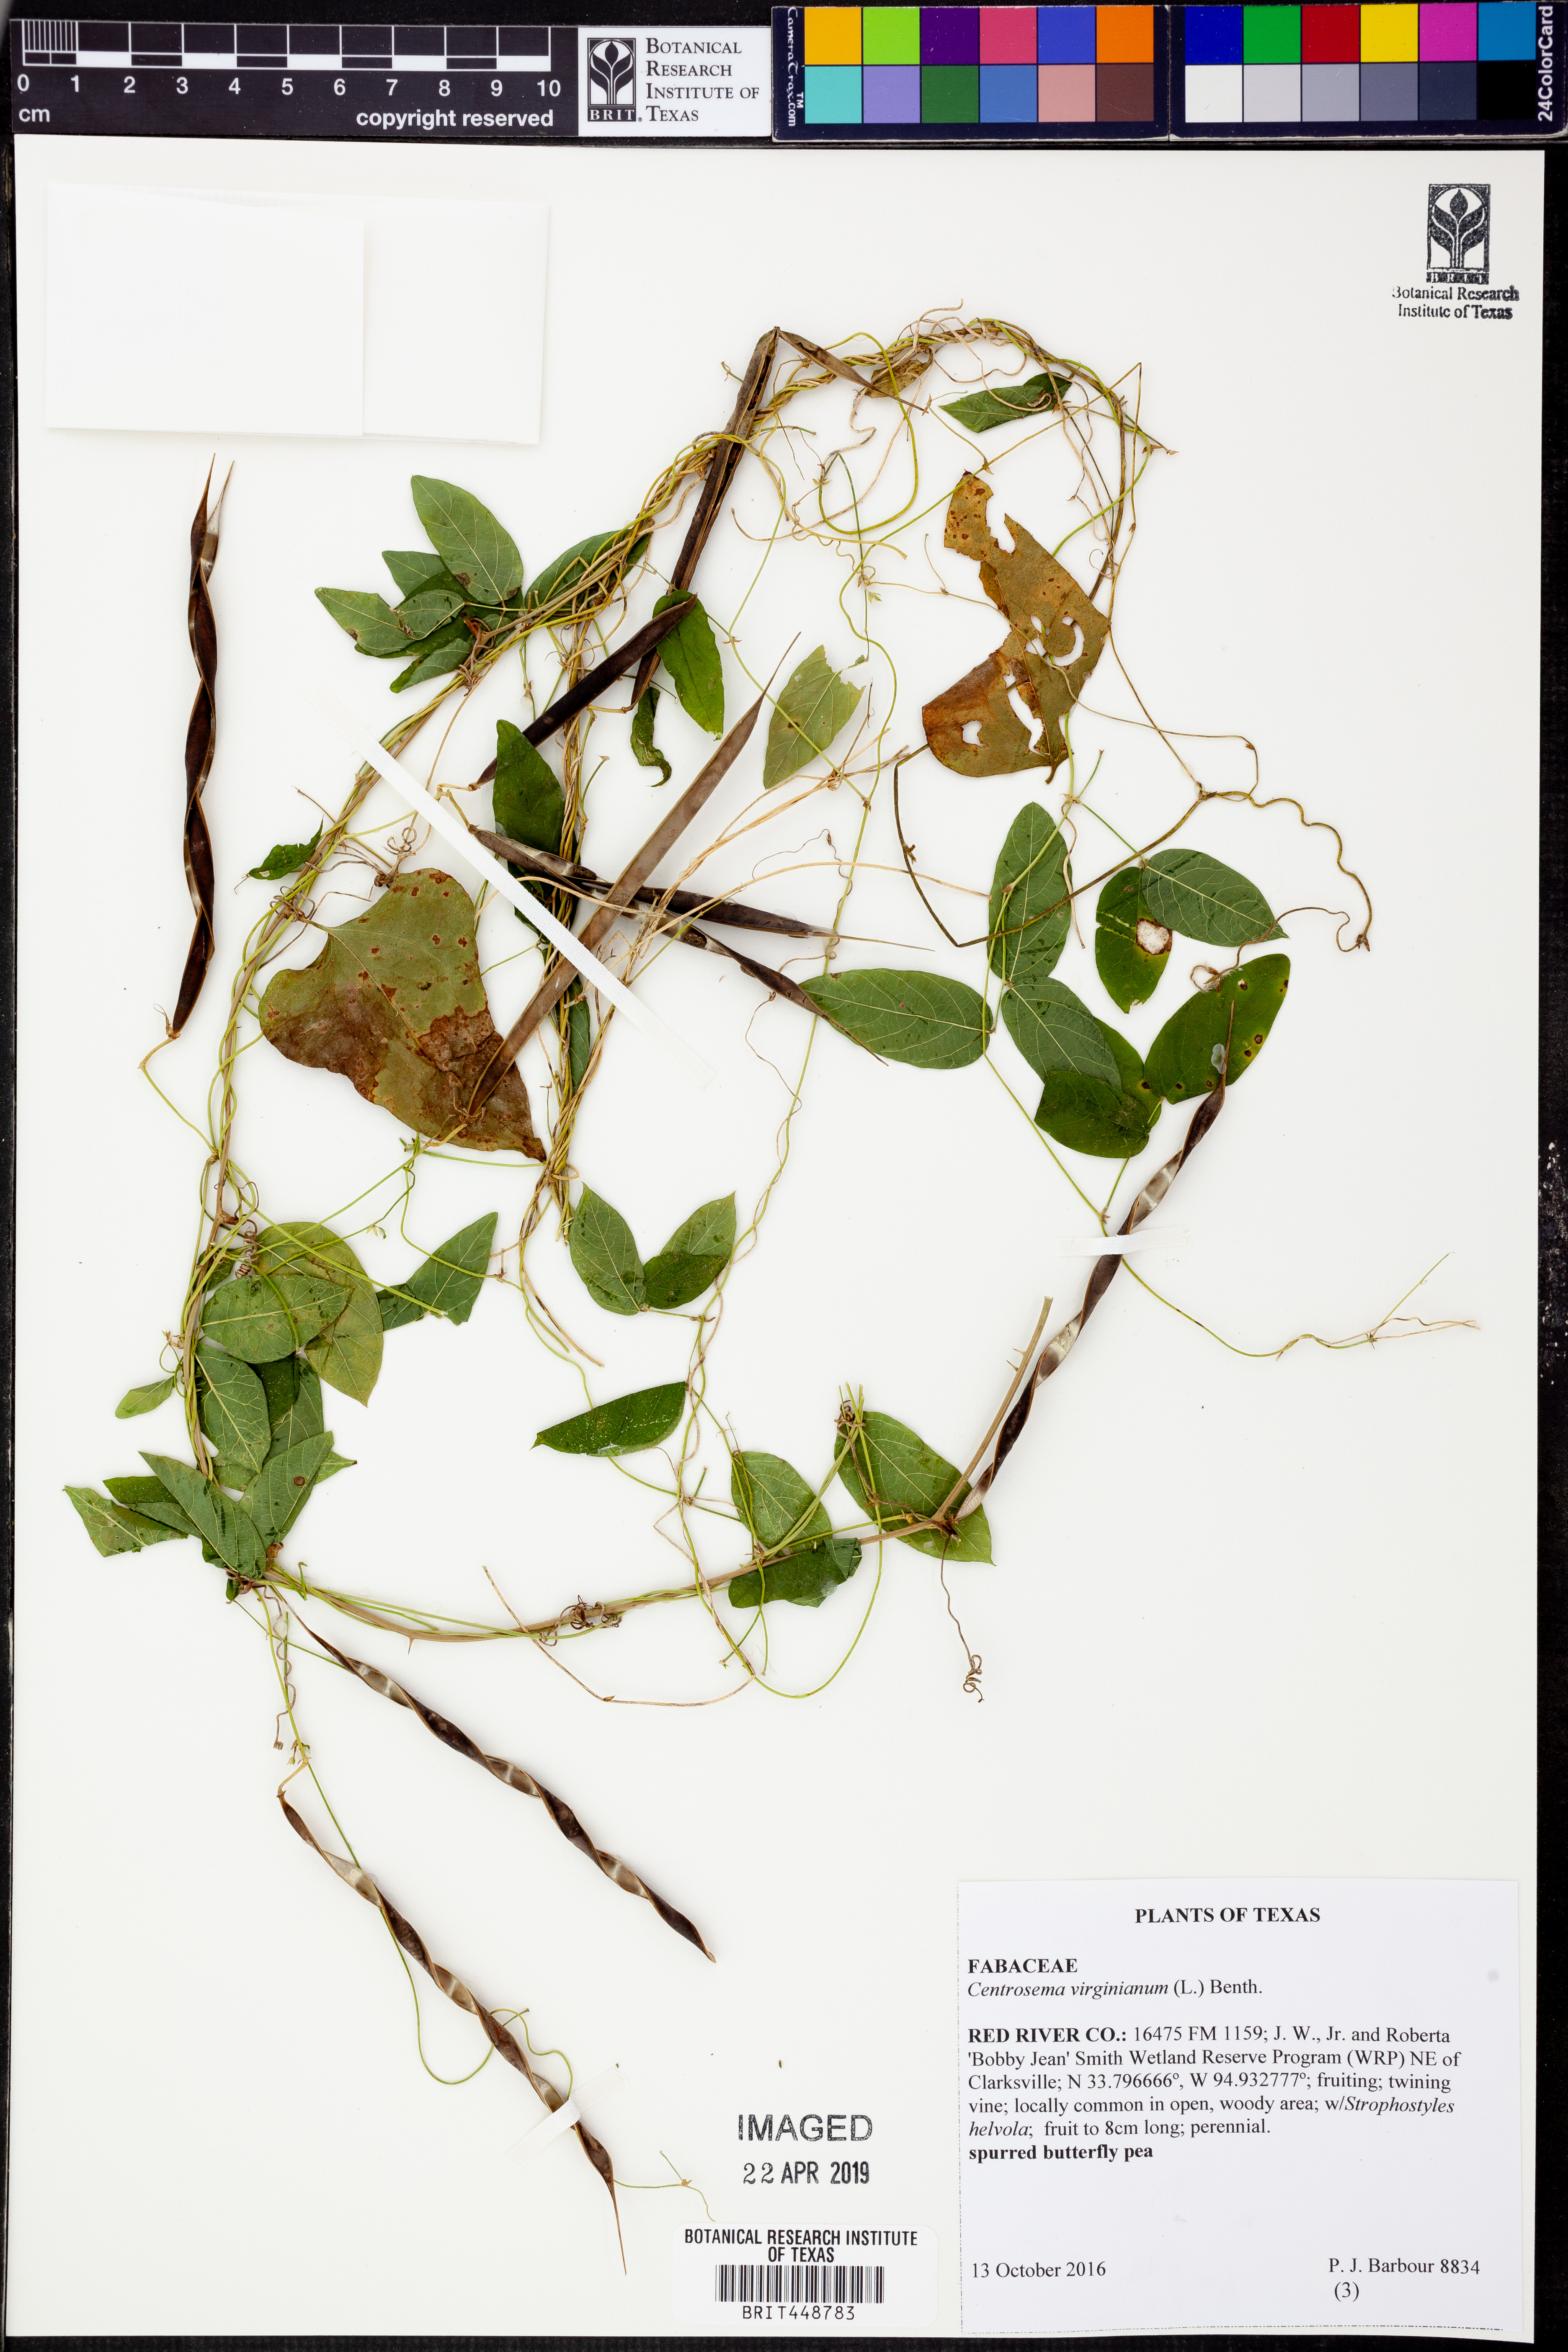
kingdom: Plantae
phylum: Tracheophyta
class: Magnoliopsida
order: Fabales
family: Fabaceae
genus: Centrosema
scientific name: Centrosema virginianum
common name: Butterfly-pea
